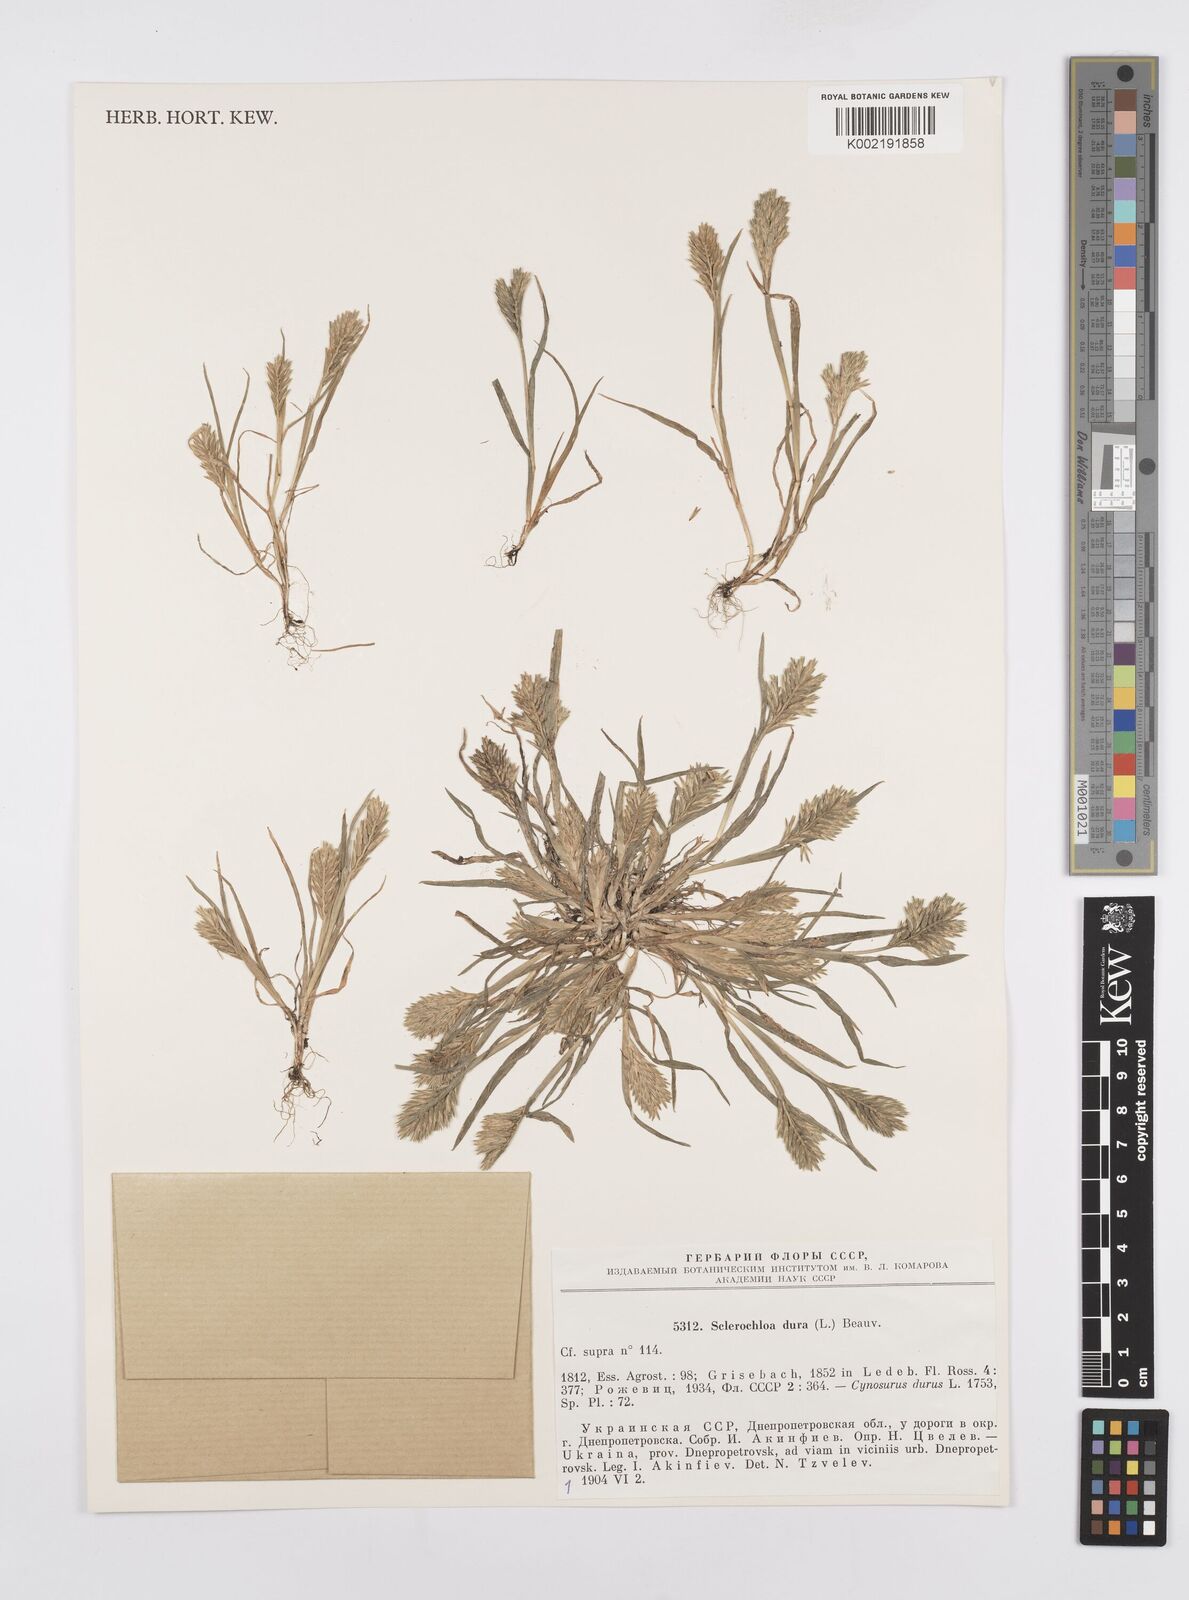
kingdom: Plantae
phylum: Tracheophyta
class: Liliopsida
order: Poales
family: Poaceae
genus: Sclerochloa
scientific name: Sclerochloa dura
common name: Common hardgrass
